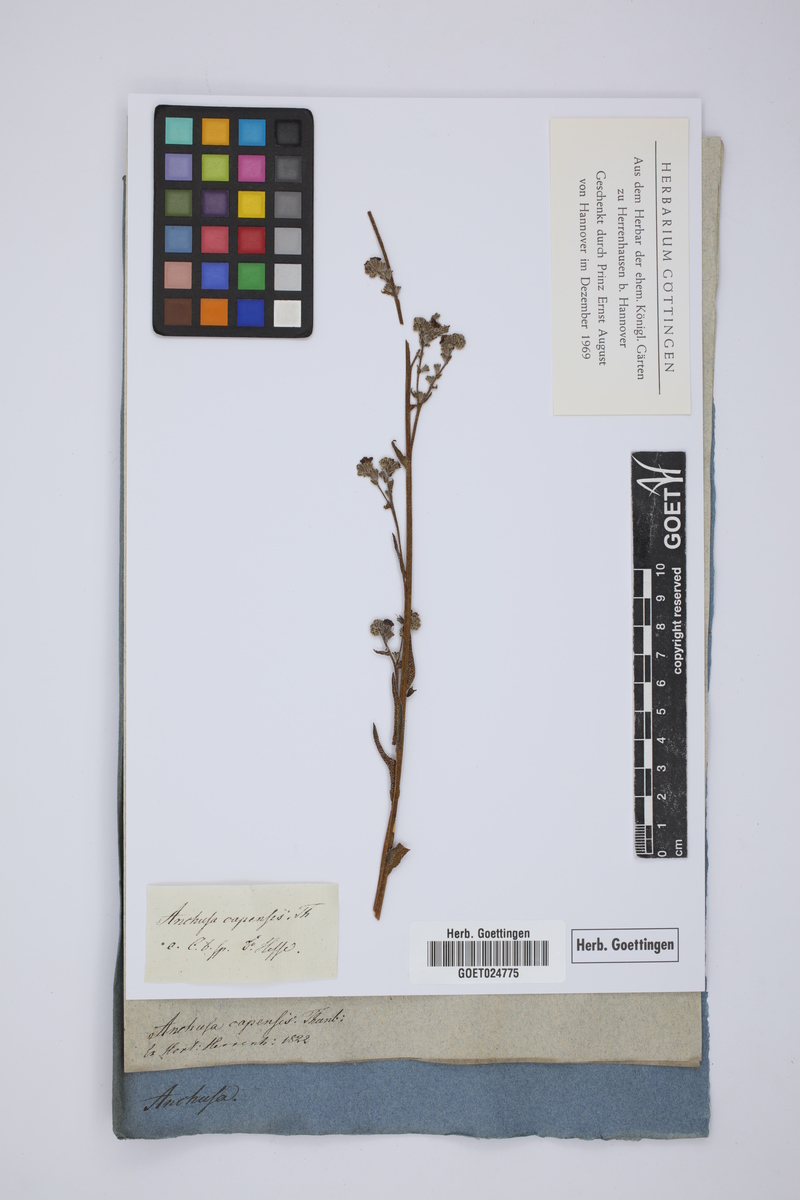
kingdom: Plantae
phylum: Tracheophyta
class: Magnoliopsida
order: Boraginales
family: Boraginaceae
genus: Anchusa
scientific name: Anchusa capensis
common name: Cape bugloss
